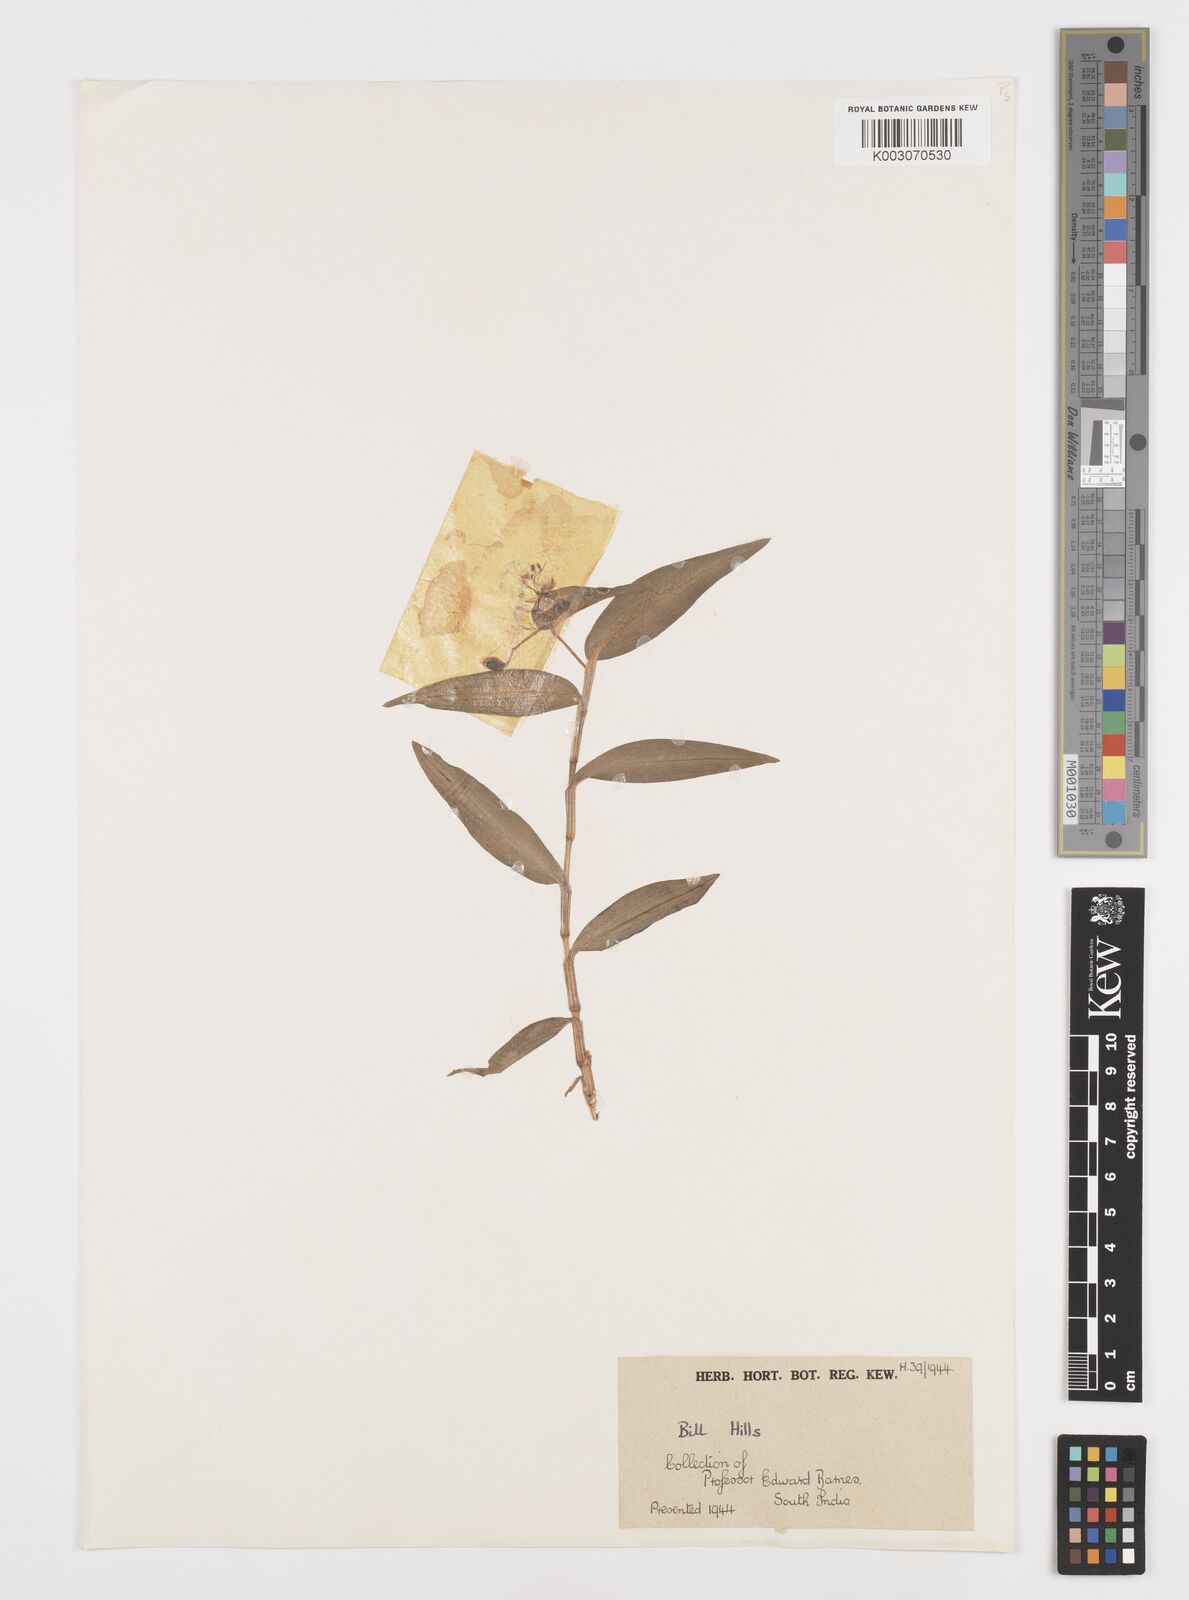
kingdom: Plantae
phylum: Tracheophyta
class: Liliopsida
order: Commelinales
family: Commelinaceae
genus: Commelina
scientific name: Commelina
